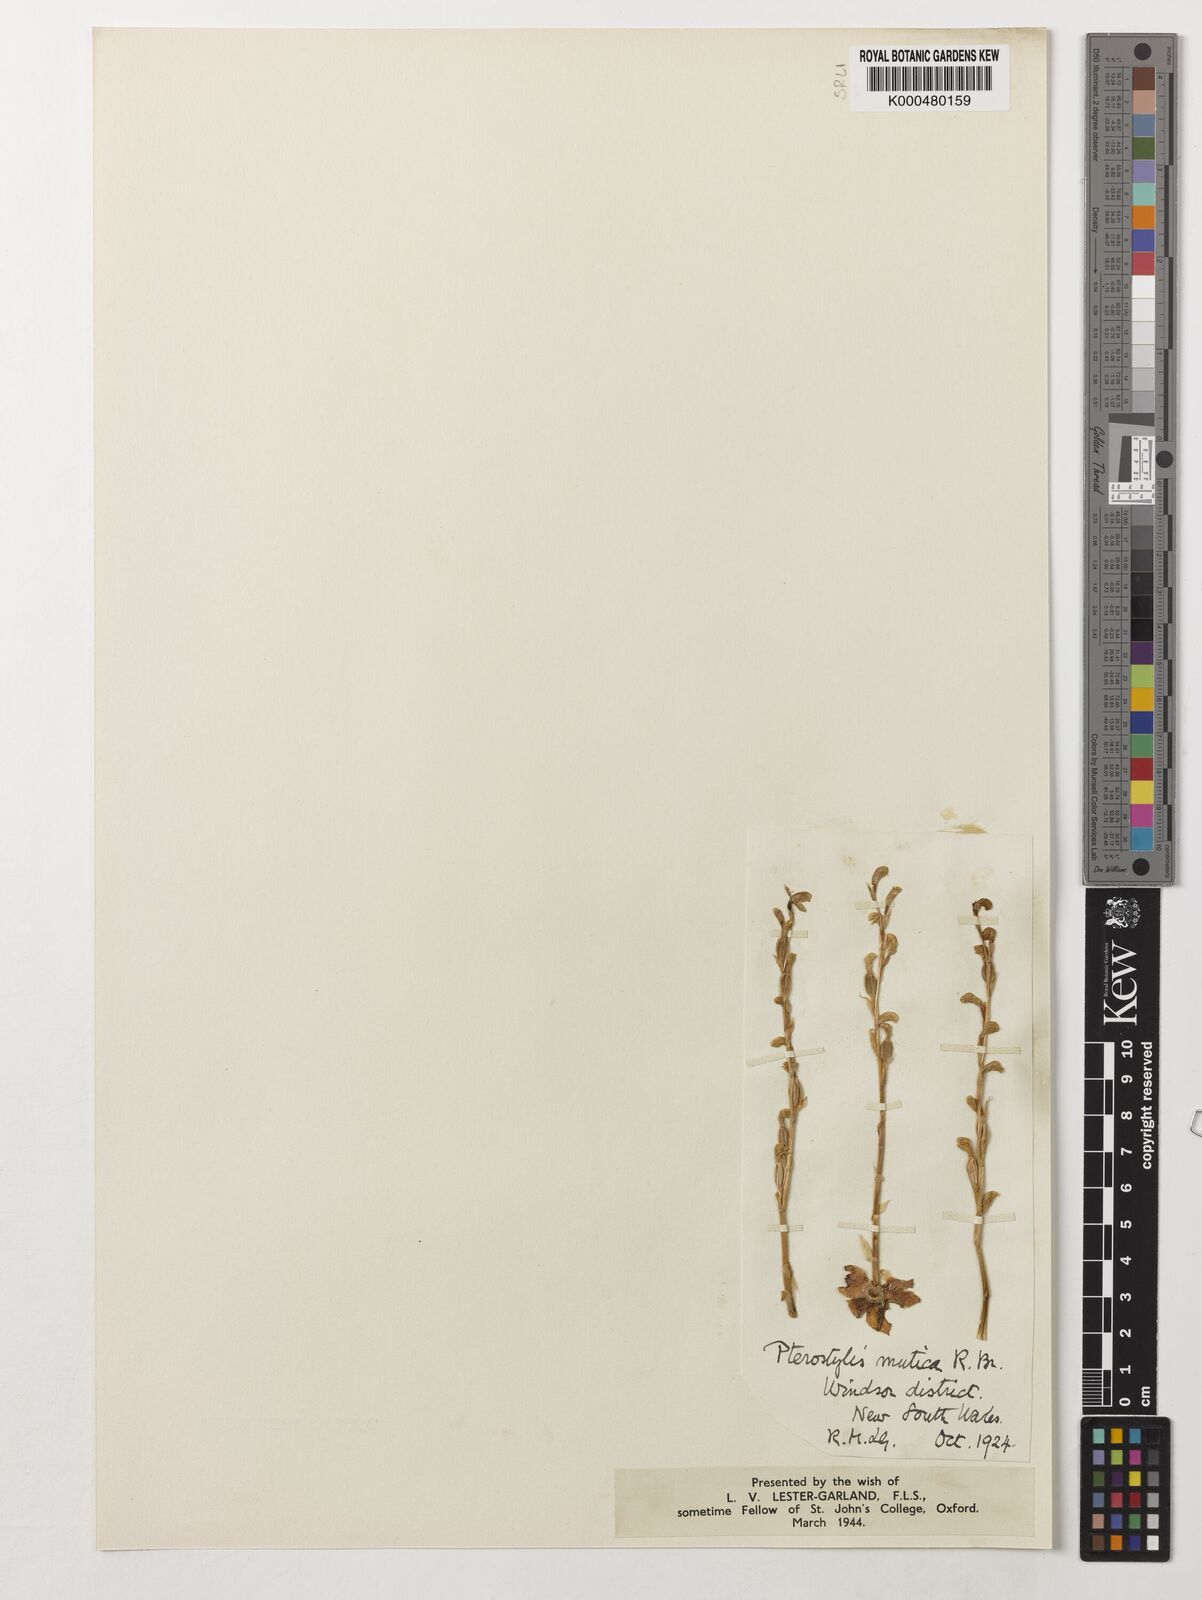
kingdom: Plantae
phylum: Tracheophyta
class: Liliopsida
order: Asparagales
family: Orchidaceae
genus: Pterostylis
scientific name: Pterostylis mutica
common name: Midget greenhood
